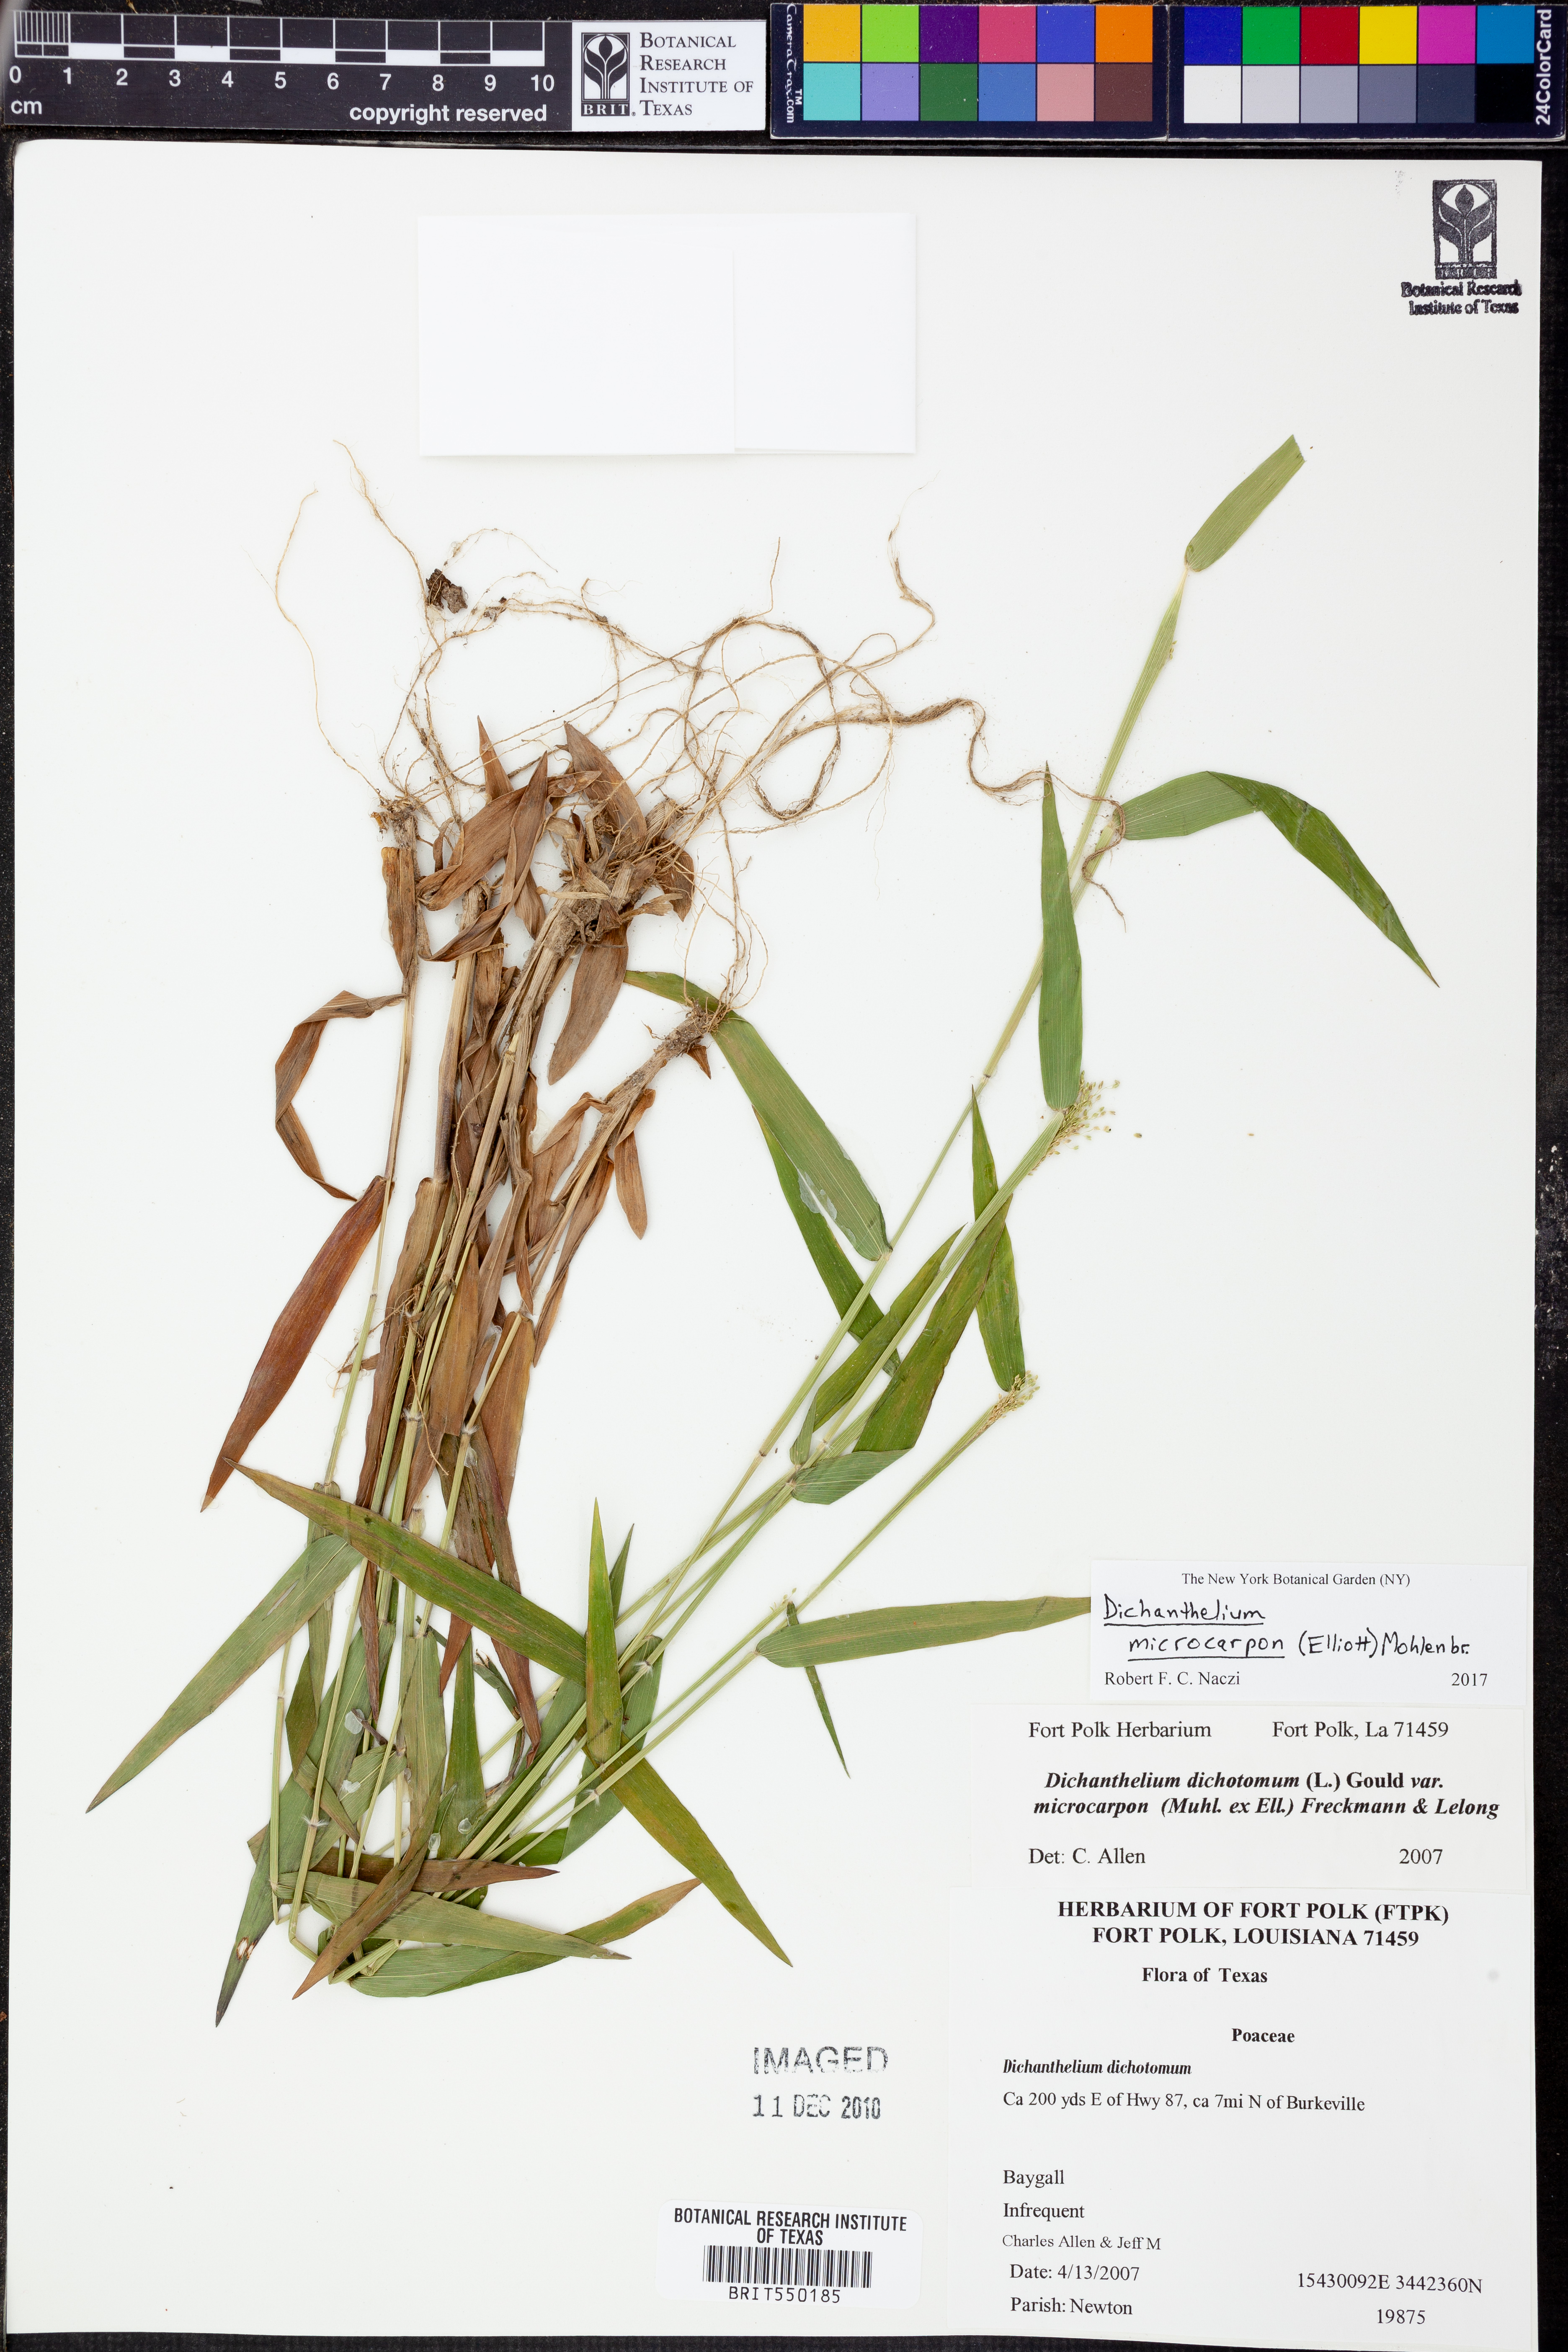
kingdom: Plantae
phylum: Tracheophyta
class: Liliopsida
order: Poales
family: Poaceae
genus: Dichanthelium
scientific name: Dichanthelium microcarpon
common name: Small-fruited witchgrass
